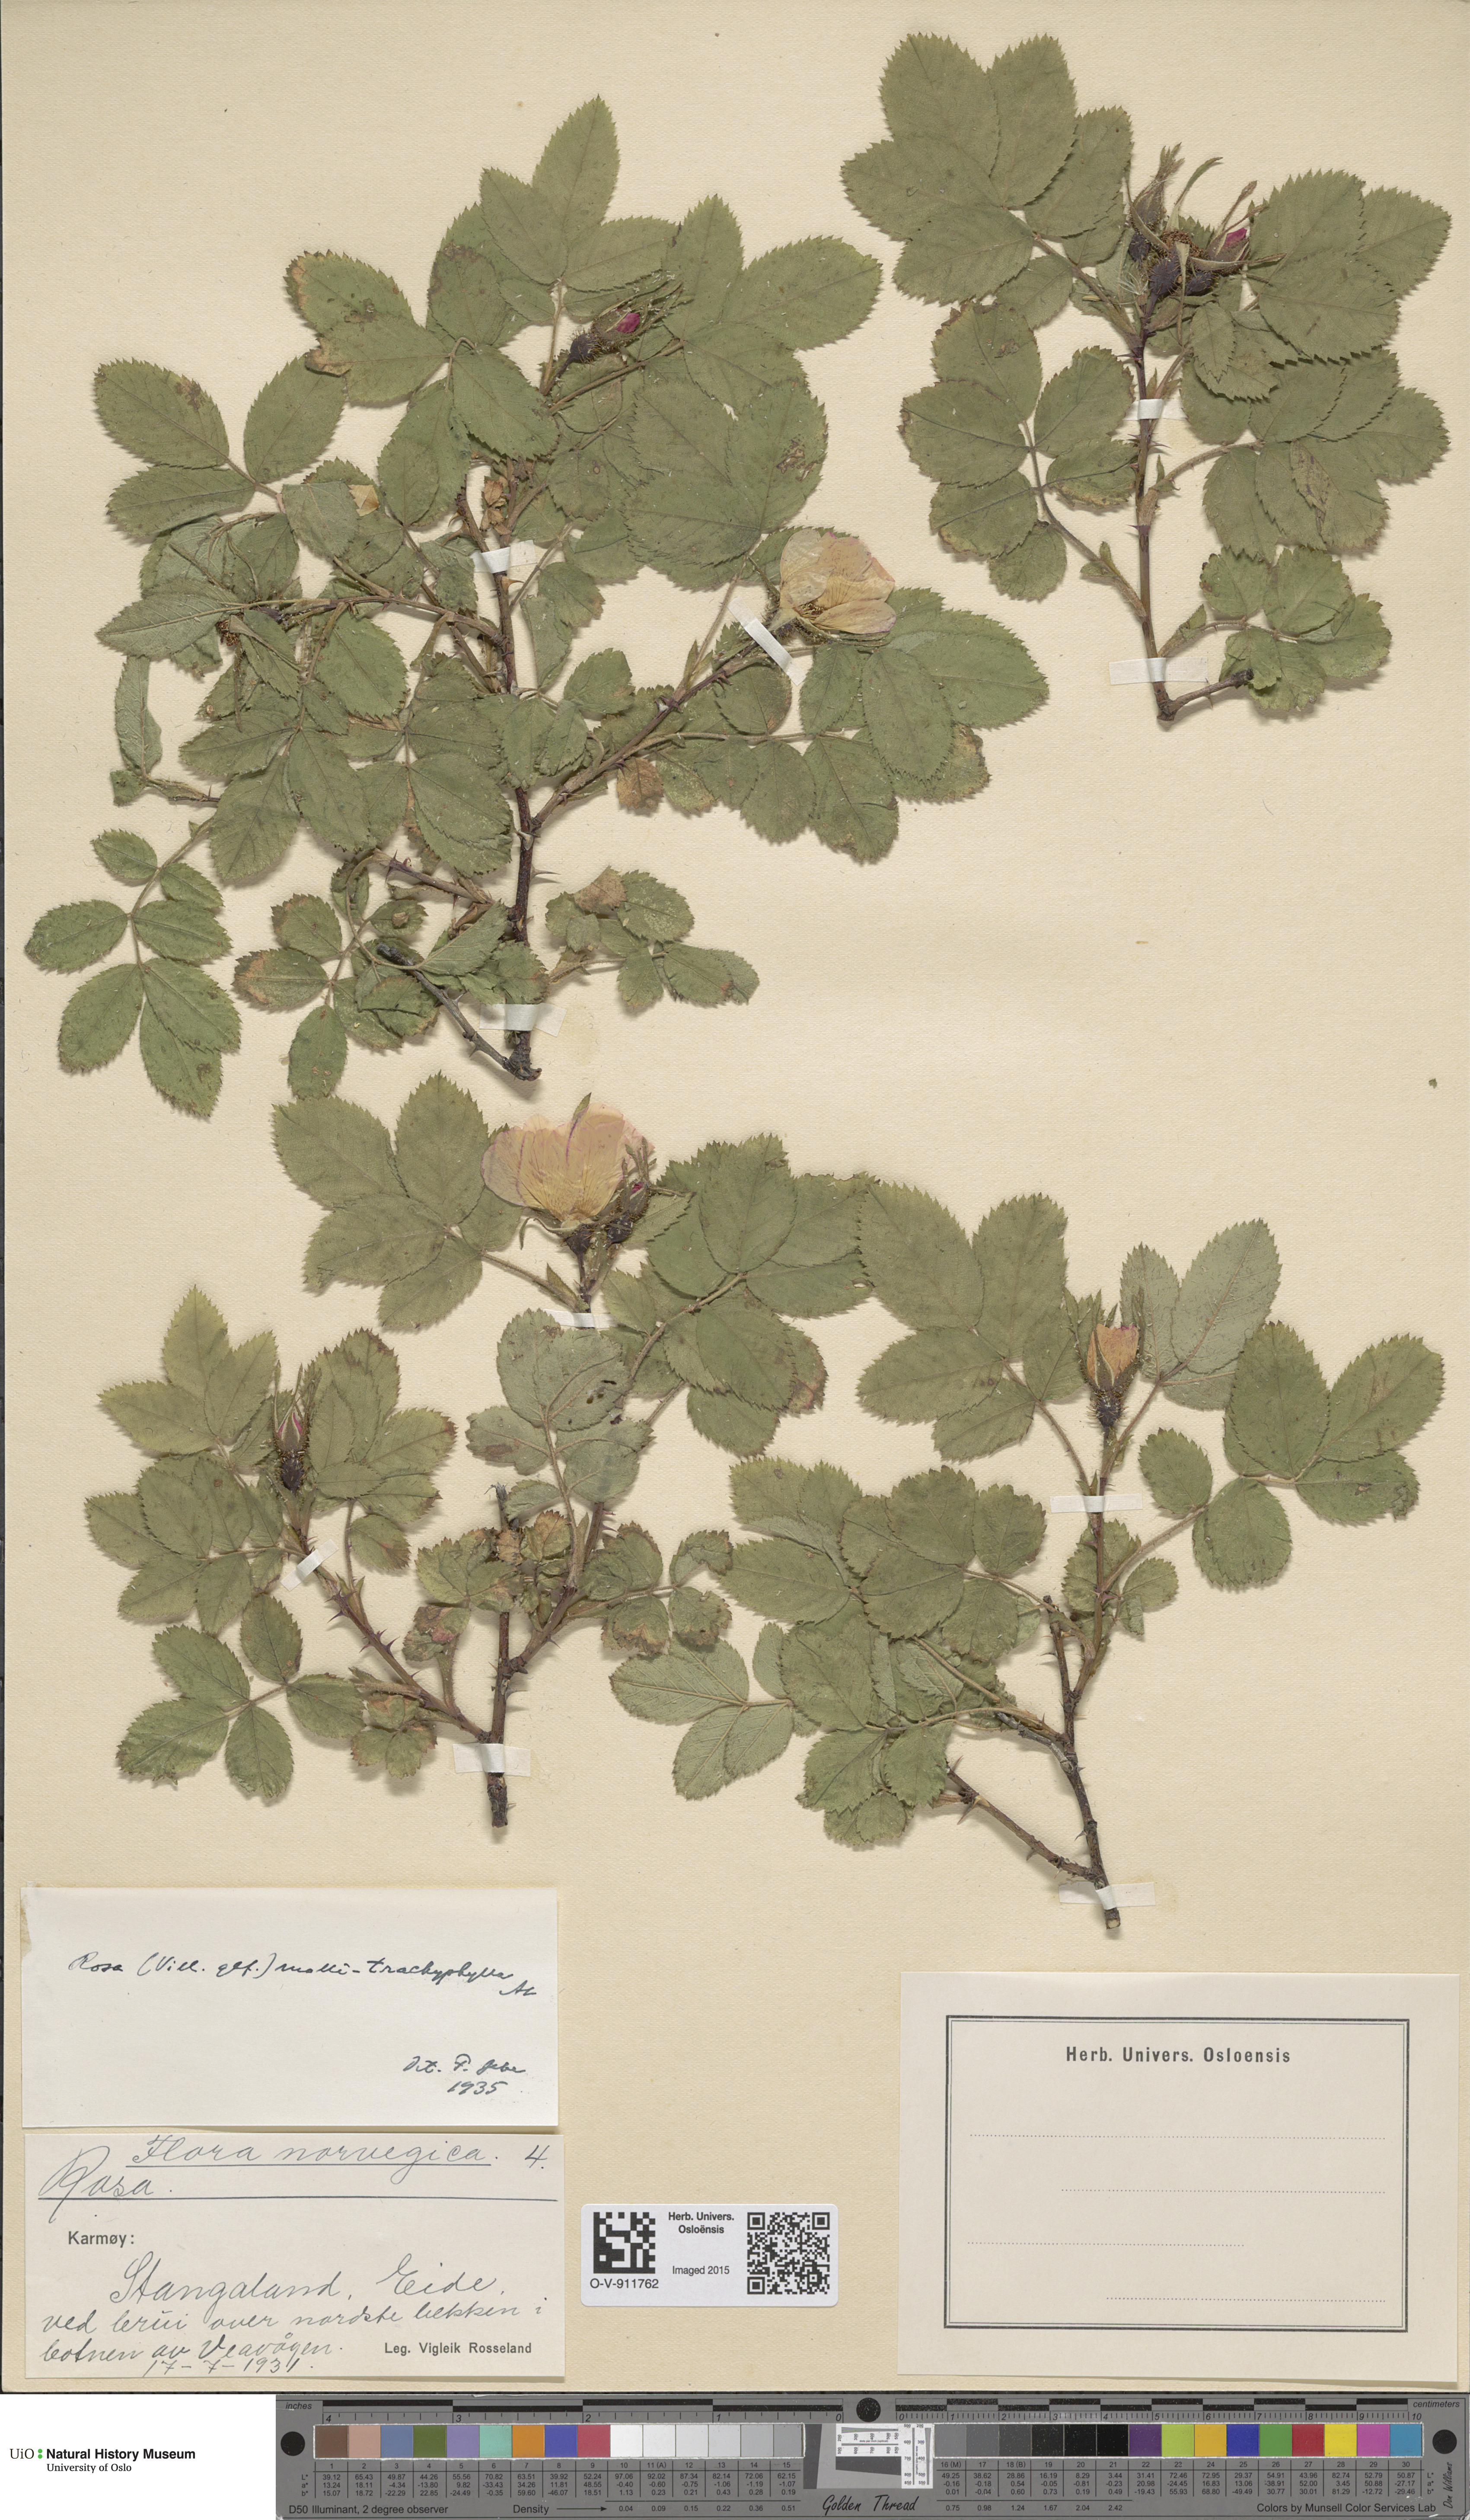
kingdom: Plantae
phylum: Tracheophyta
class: Magnoliopsida
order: Rosales
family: Rosaceae
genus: Rosa
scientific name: Rosa mollis
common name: Rose
